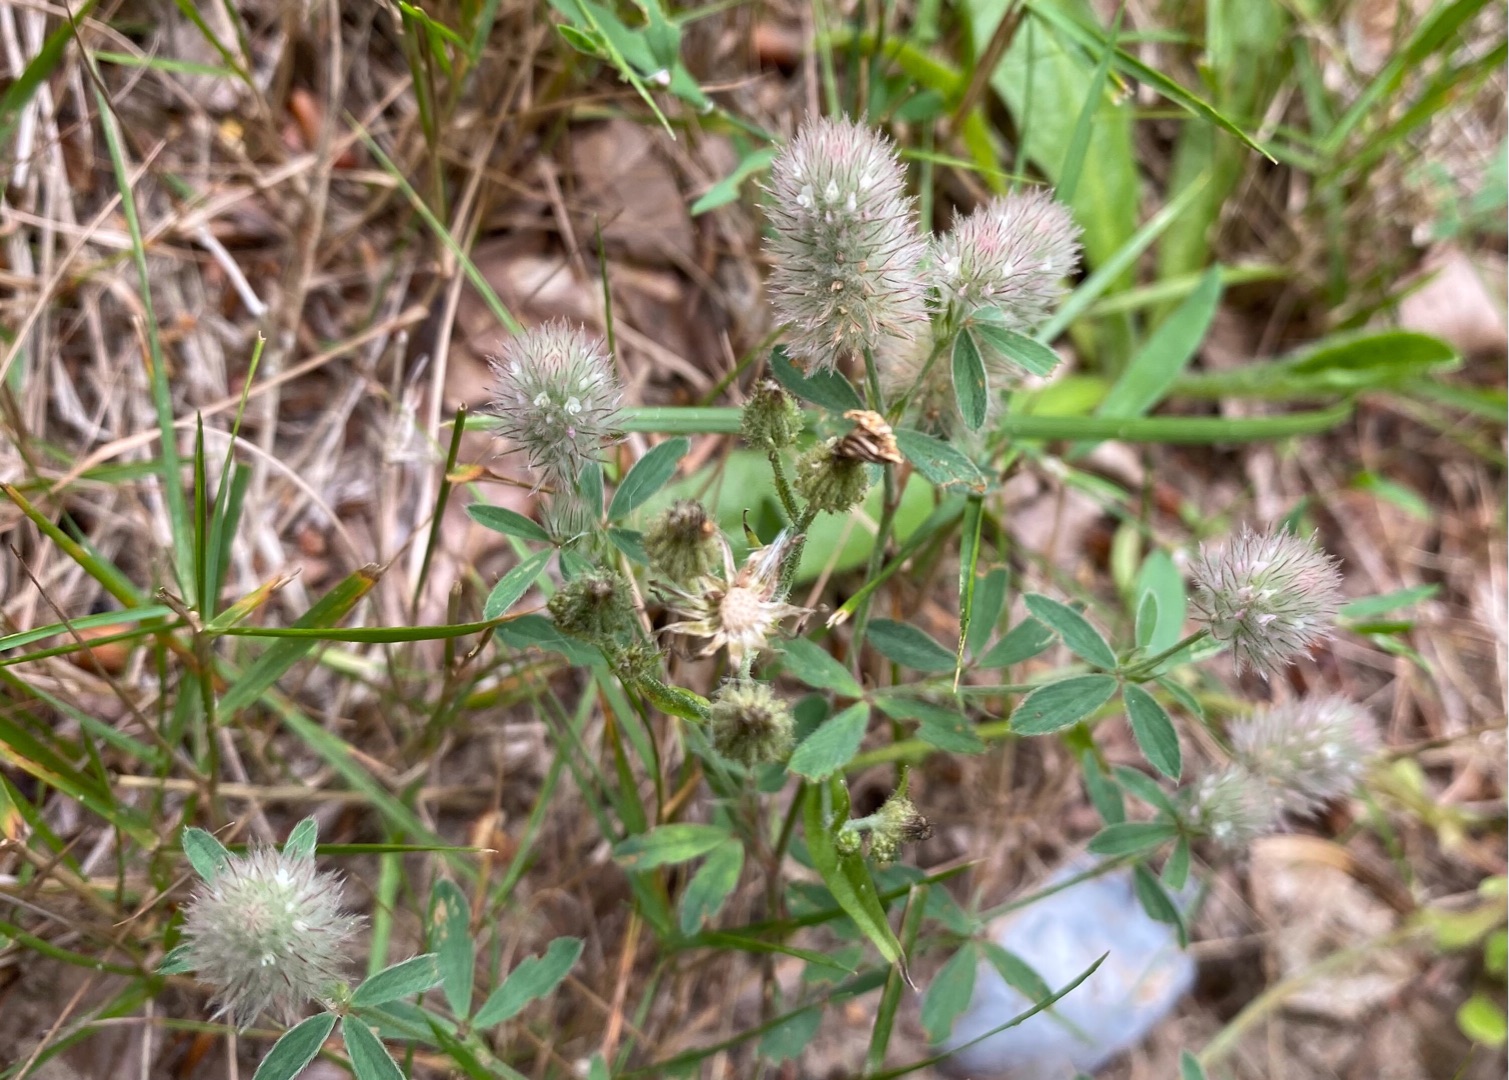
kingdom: Plantae
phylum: Tracheophyta
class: Magnoliopsida
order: Fabales
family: Fabaceae
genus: Trifolium
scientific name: Trifolium arvense
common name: Hare-kløver
